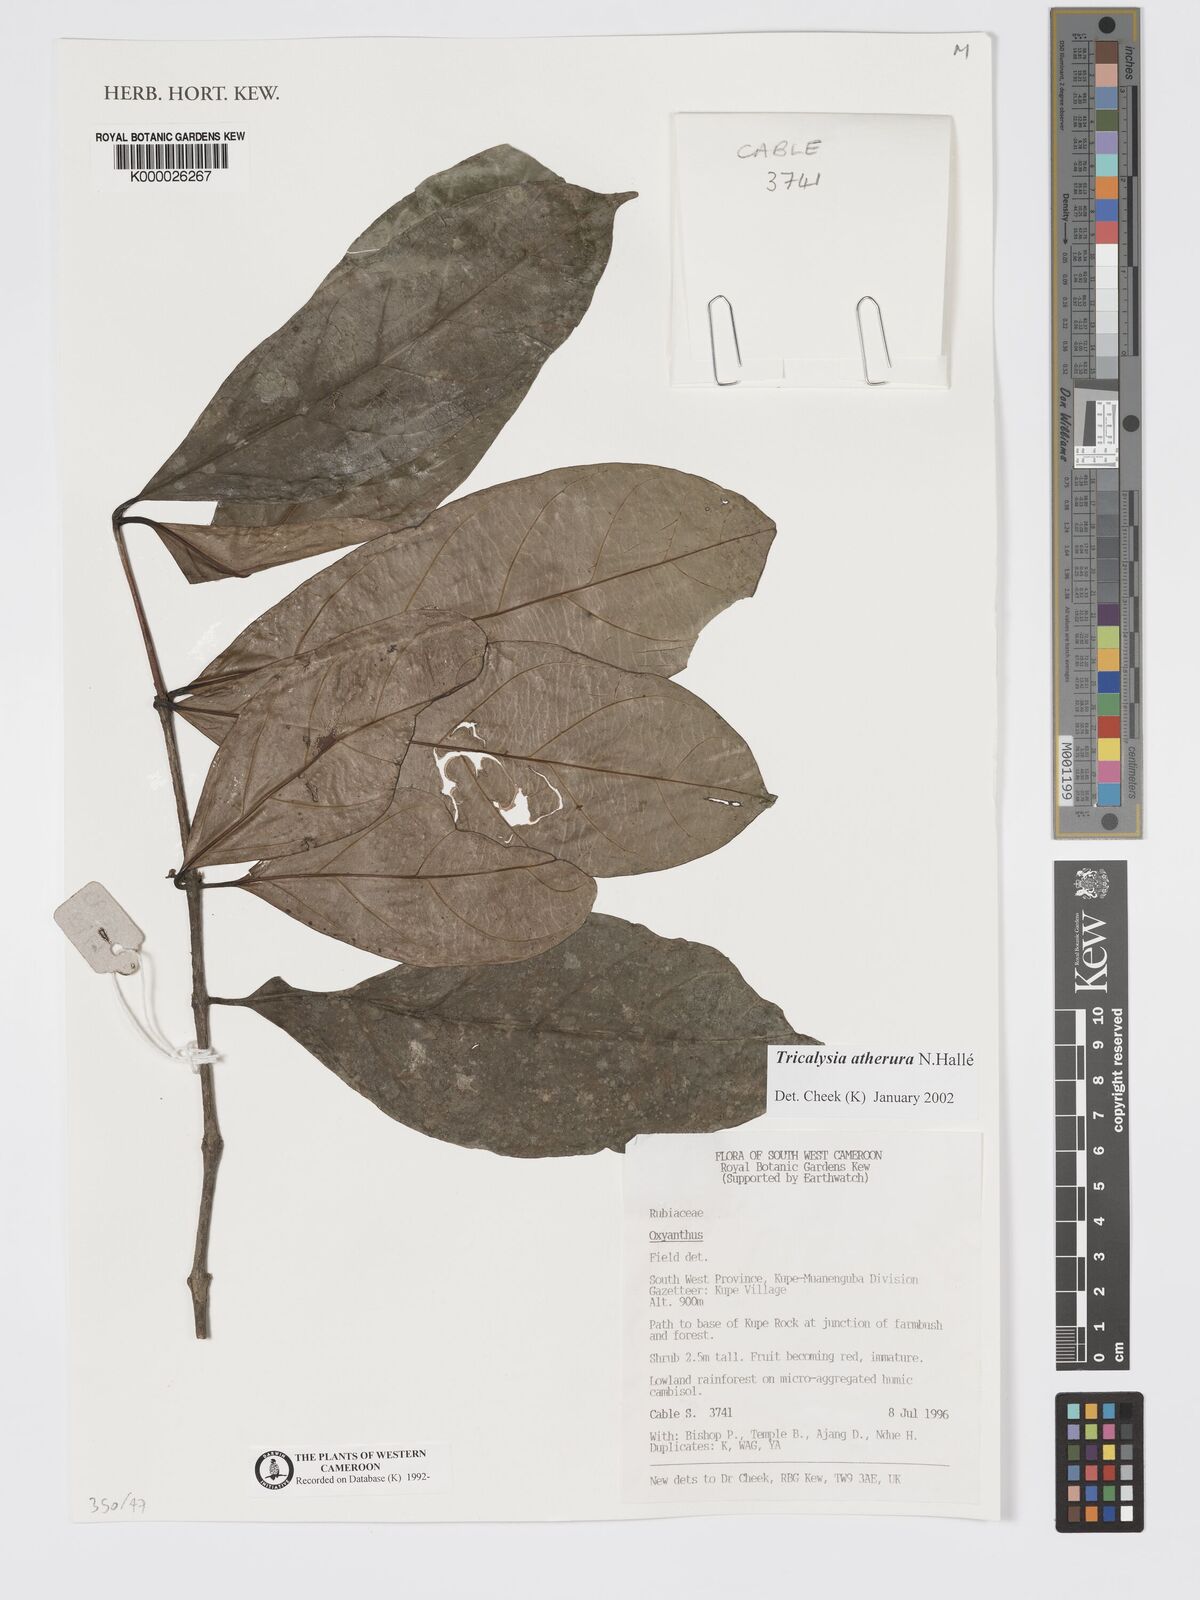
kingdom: Plantae
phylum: Tracheophyta
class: Magnoliopsida
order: Gentianales
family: Rubiaceae
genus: Tricalysia
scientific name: Tricalysia
